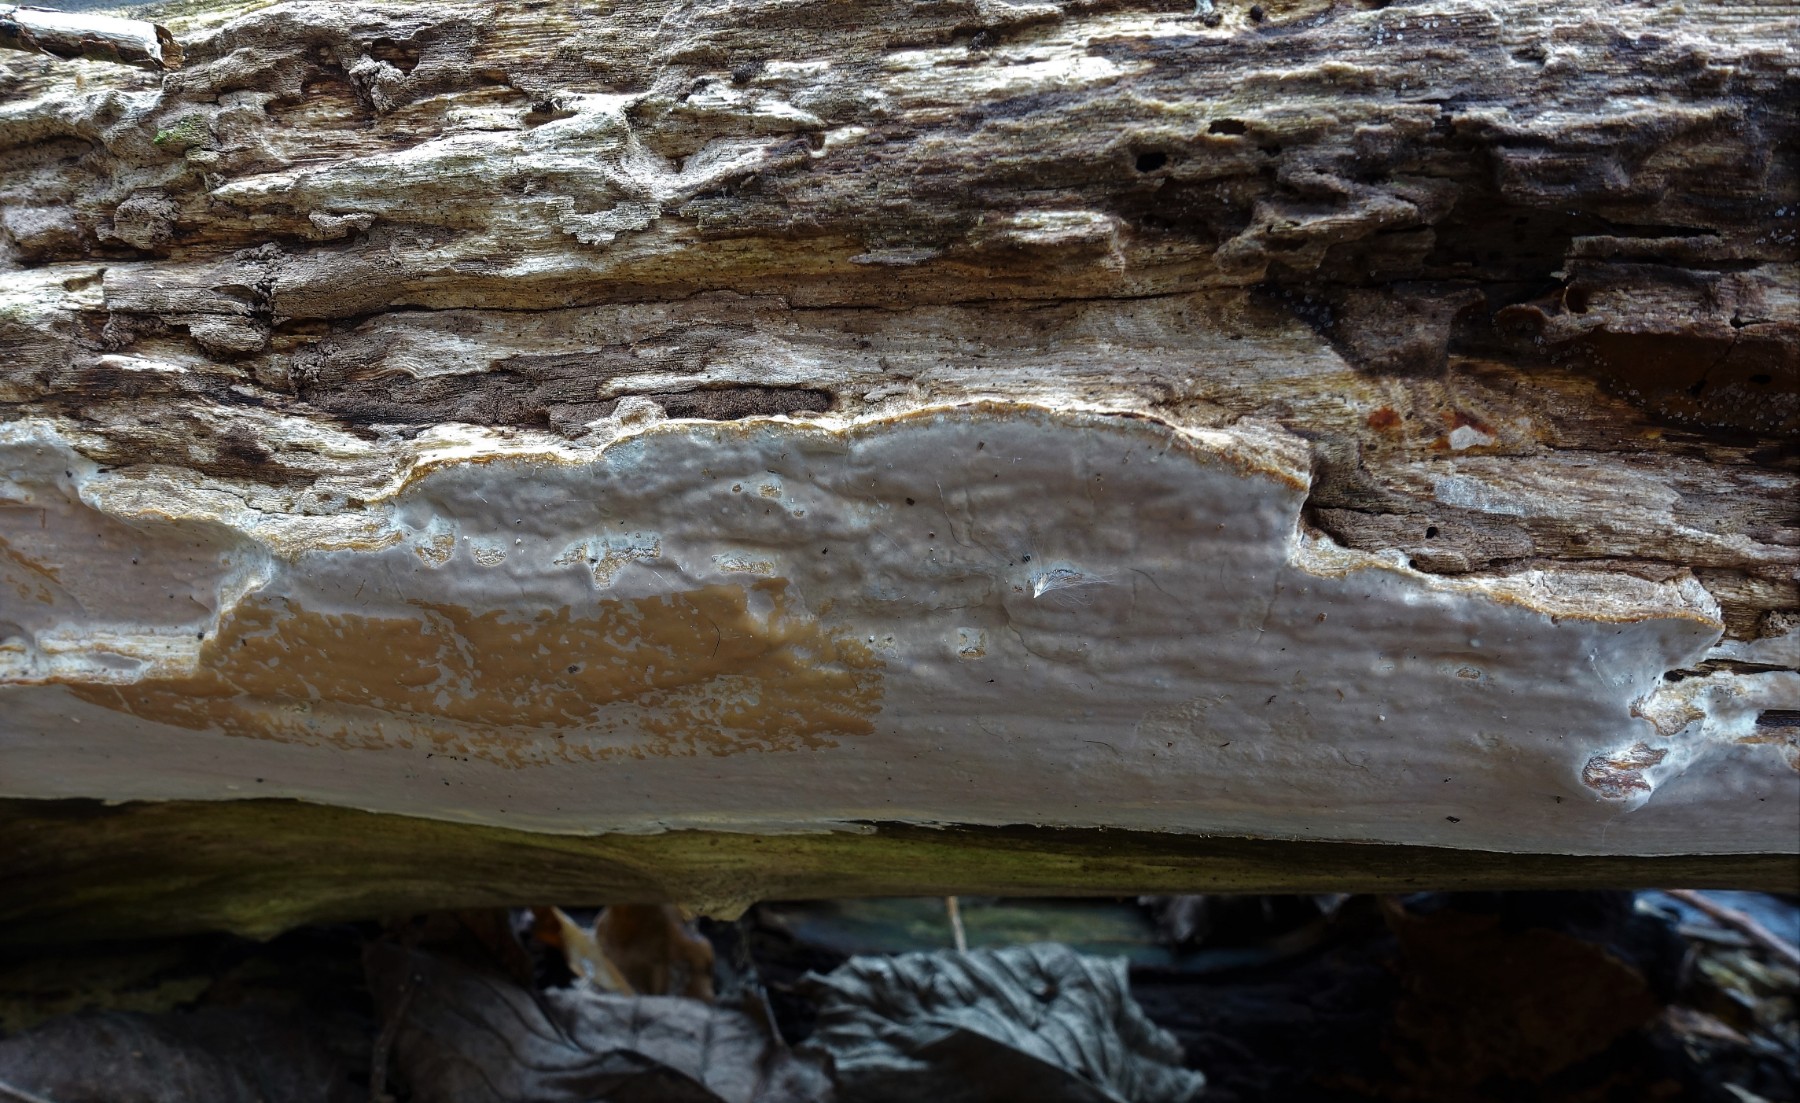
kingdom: Fungi
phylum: Basidiomycota
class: Agaricomycetes
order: Russulales
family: Peniophoraceae
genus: Scytinostroma
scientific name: Scytinostroma hemidichophyticum
